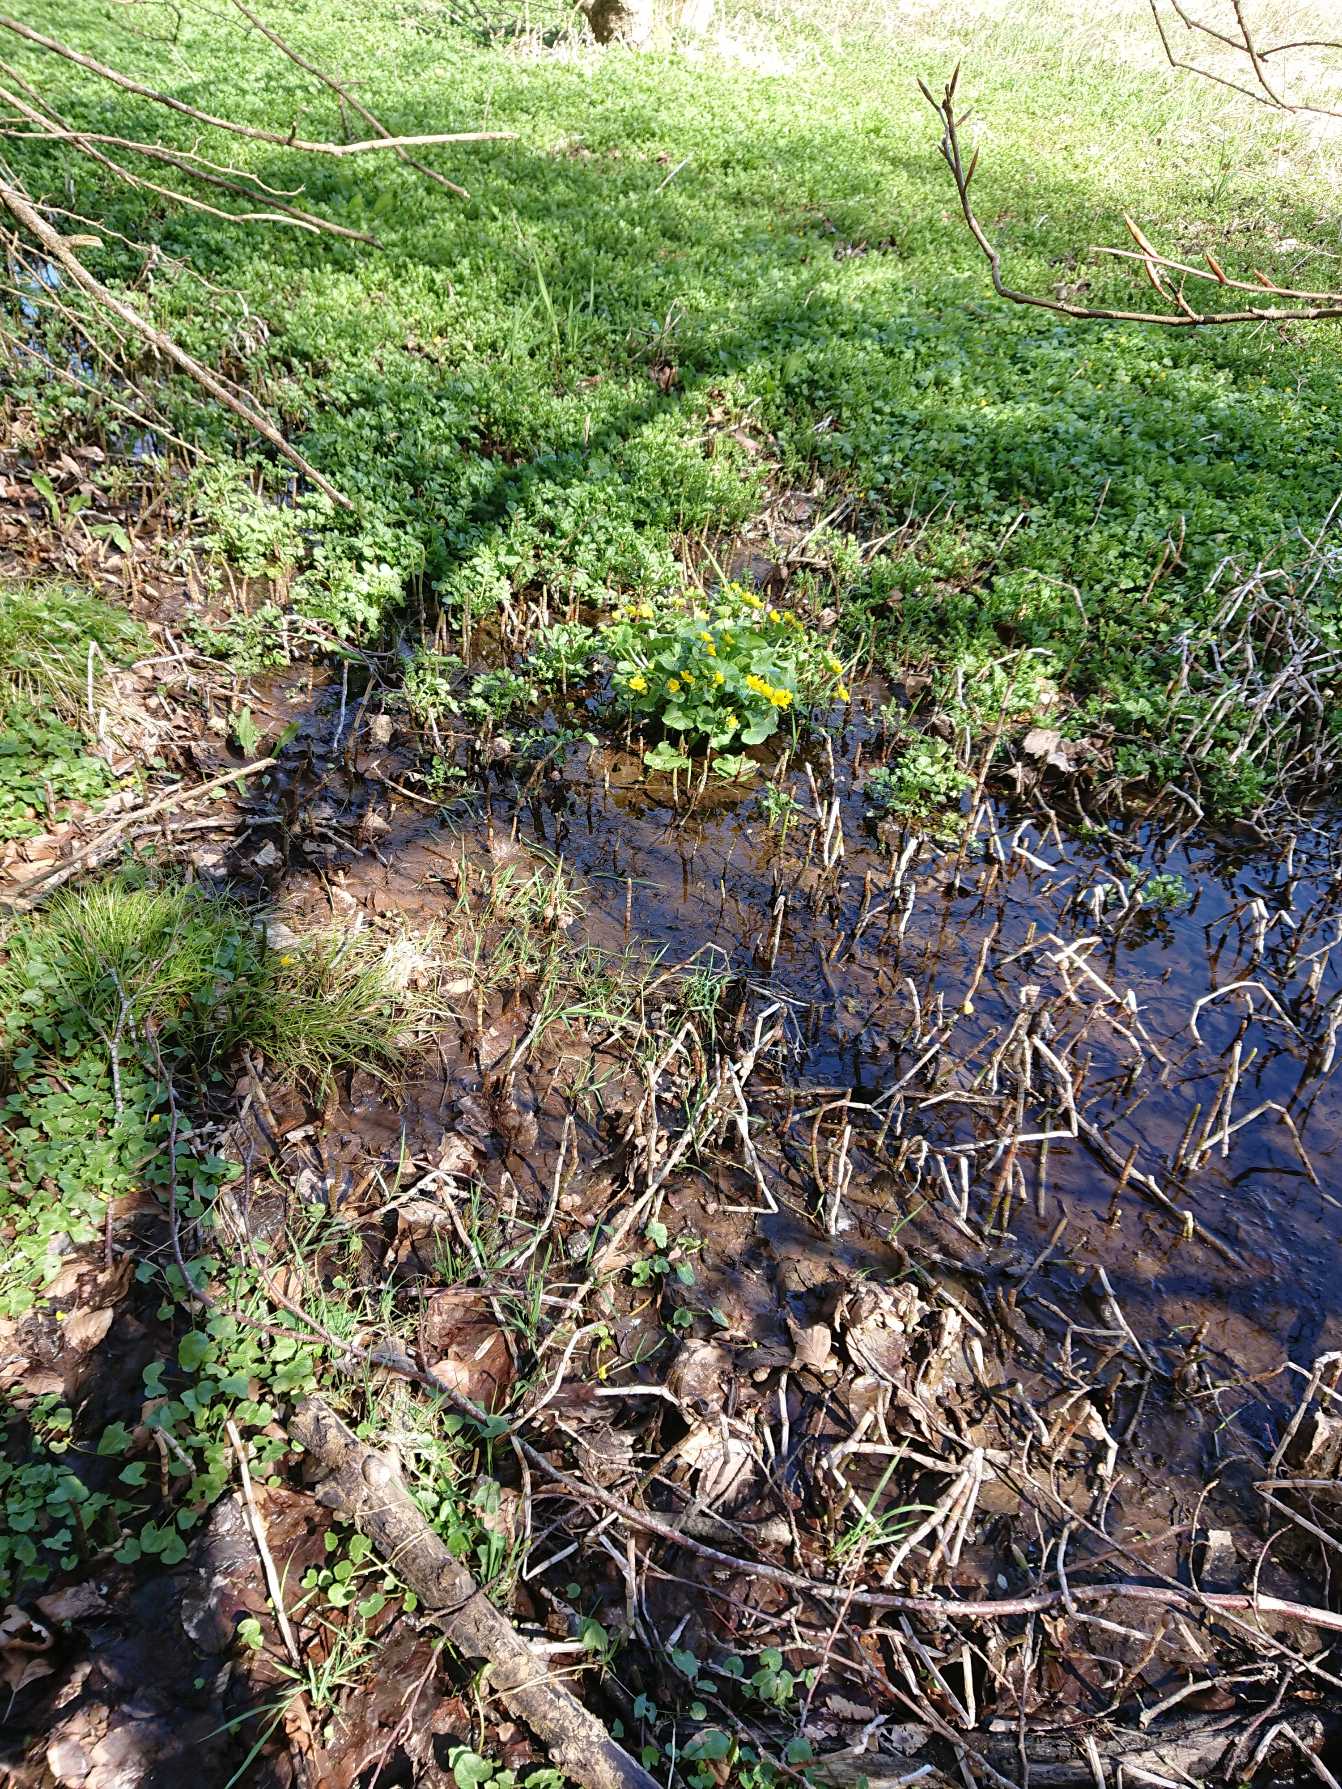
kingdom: Plantae
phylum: Tracheophyta
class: Magnoliopsida
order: Ranunculales
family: Ranunculaceae
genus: Caltha
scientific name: Caltha palustris
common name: Eng-kabbeleje
